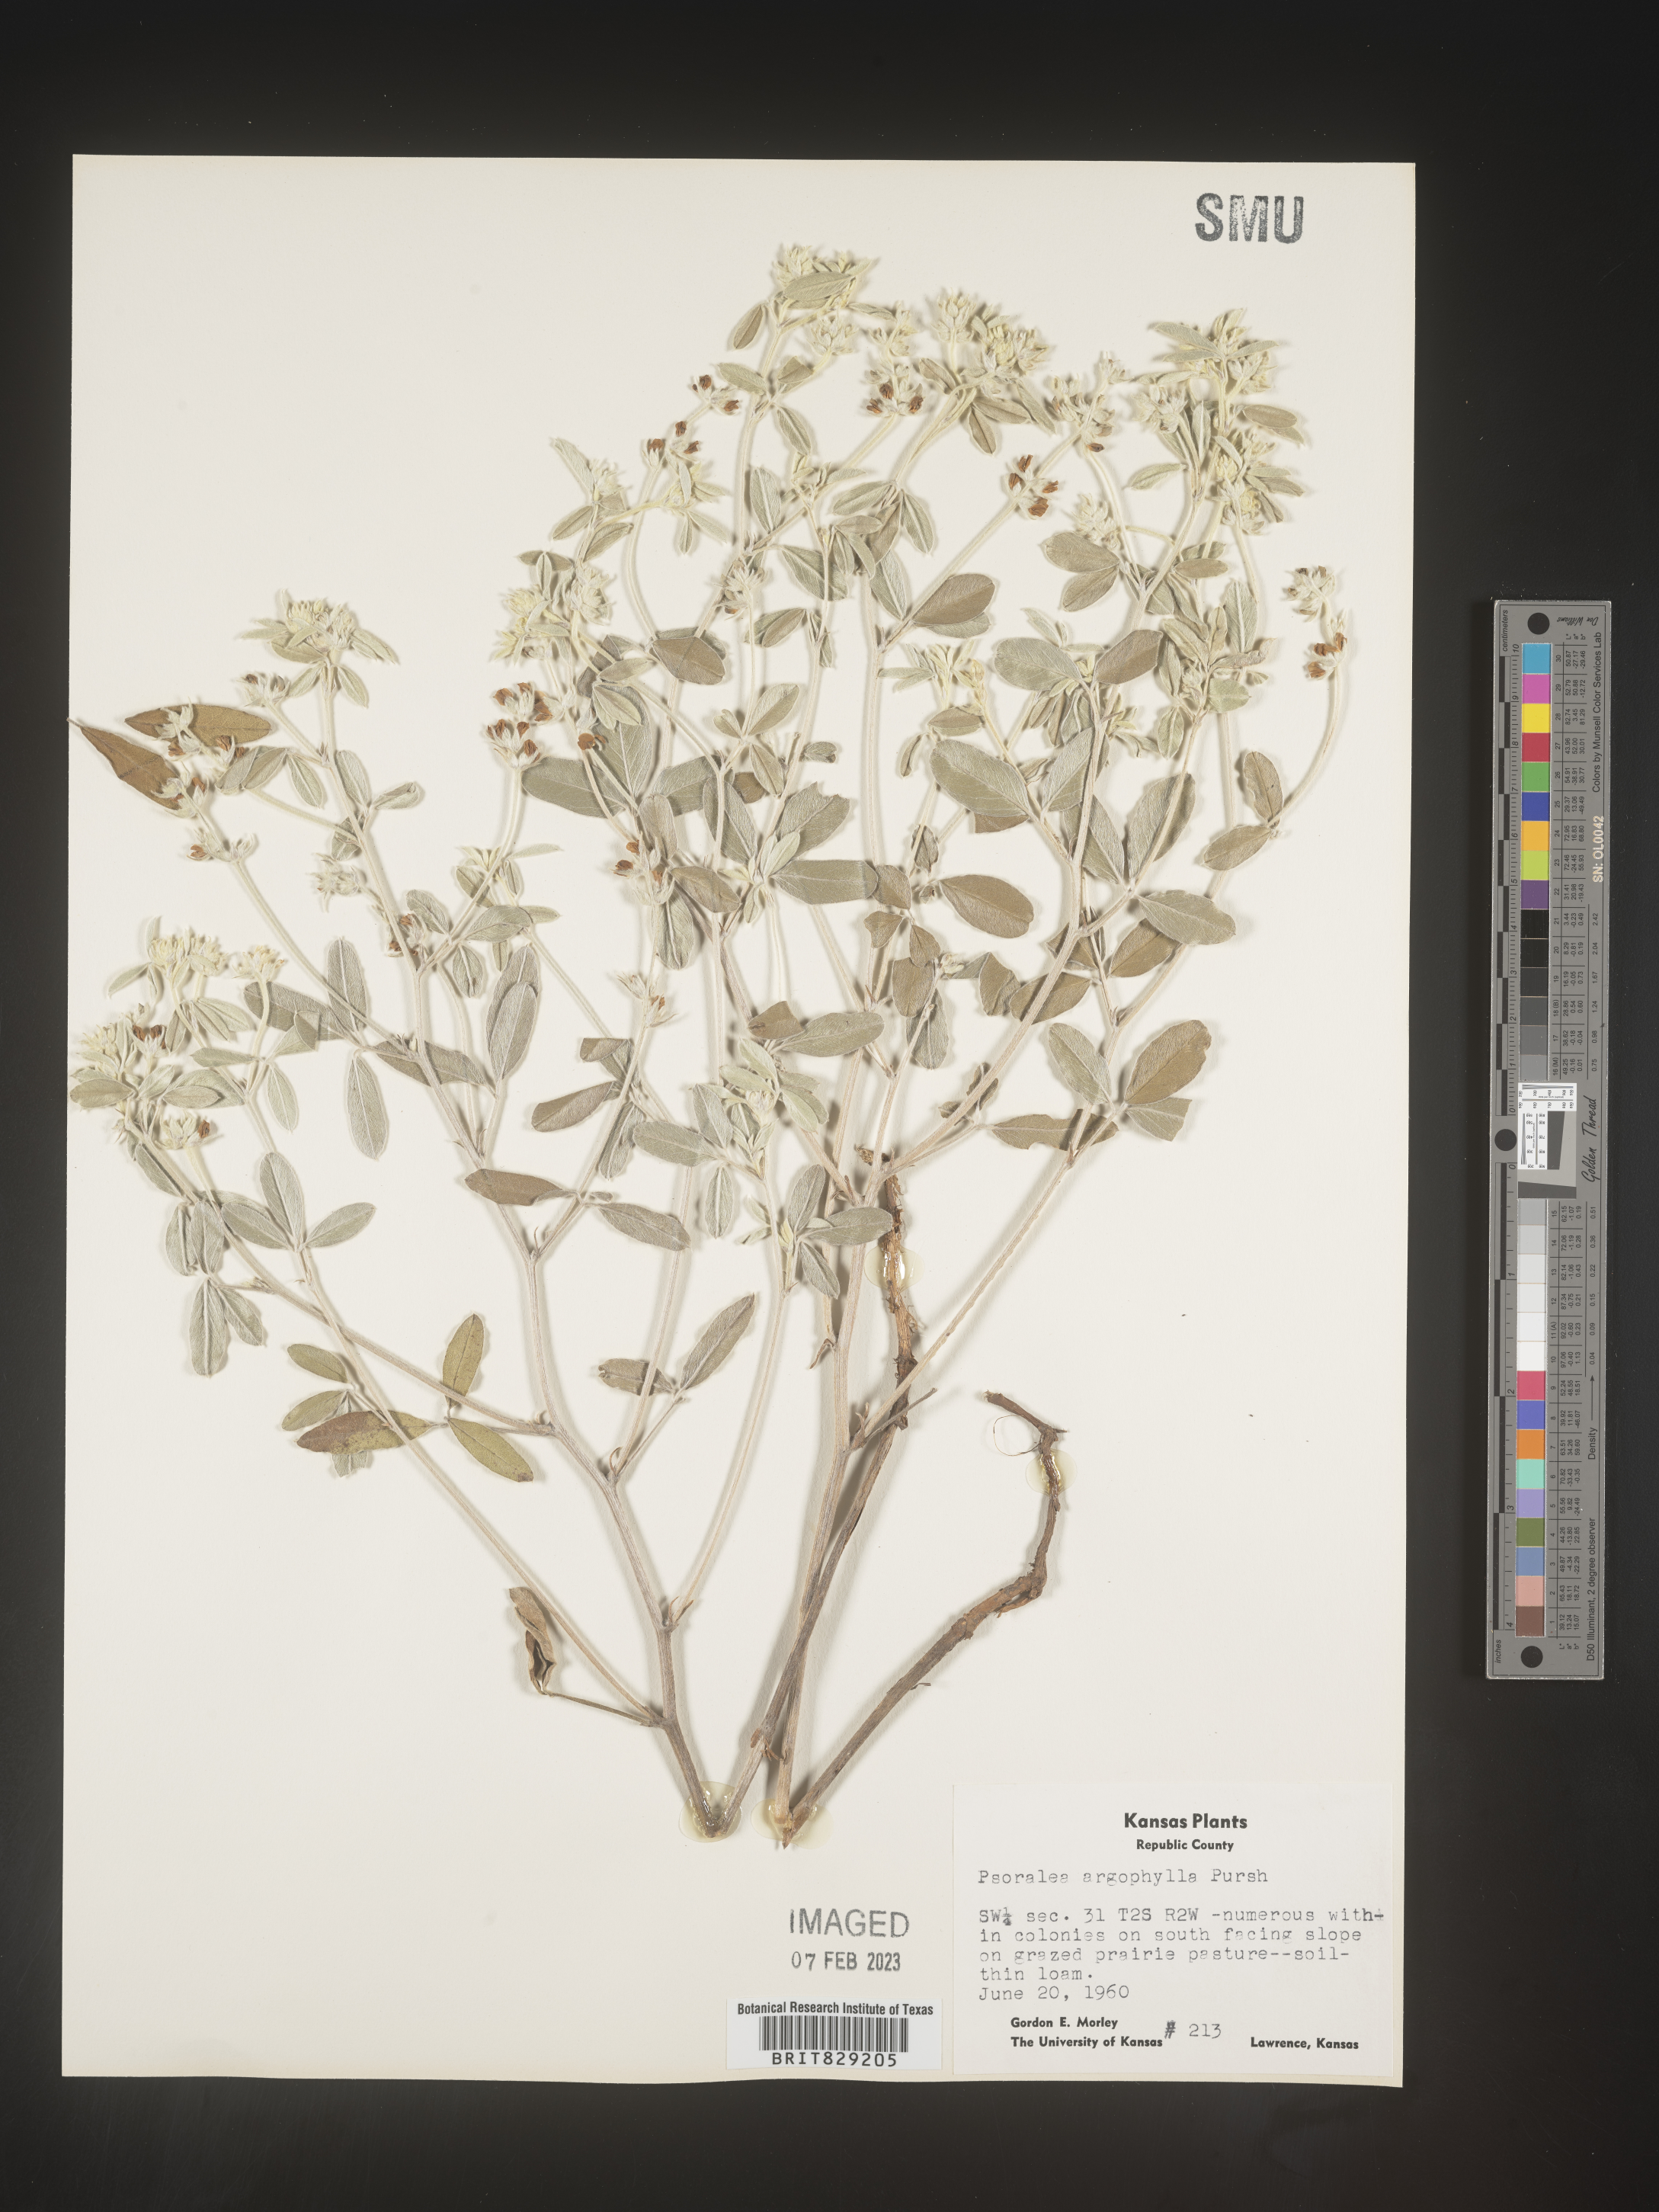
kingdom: Plantae
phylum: Tracheophyta
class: Magnoliopsida
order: Fabales
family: Fabaceae
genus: Pediomelum
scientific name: Pediomelum argophyllum
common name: Silver-leaved indian breadroot
